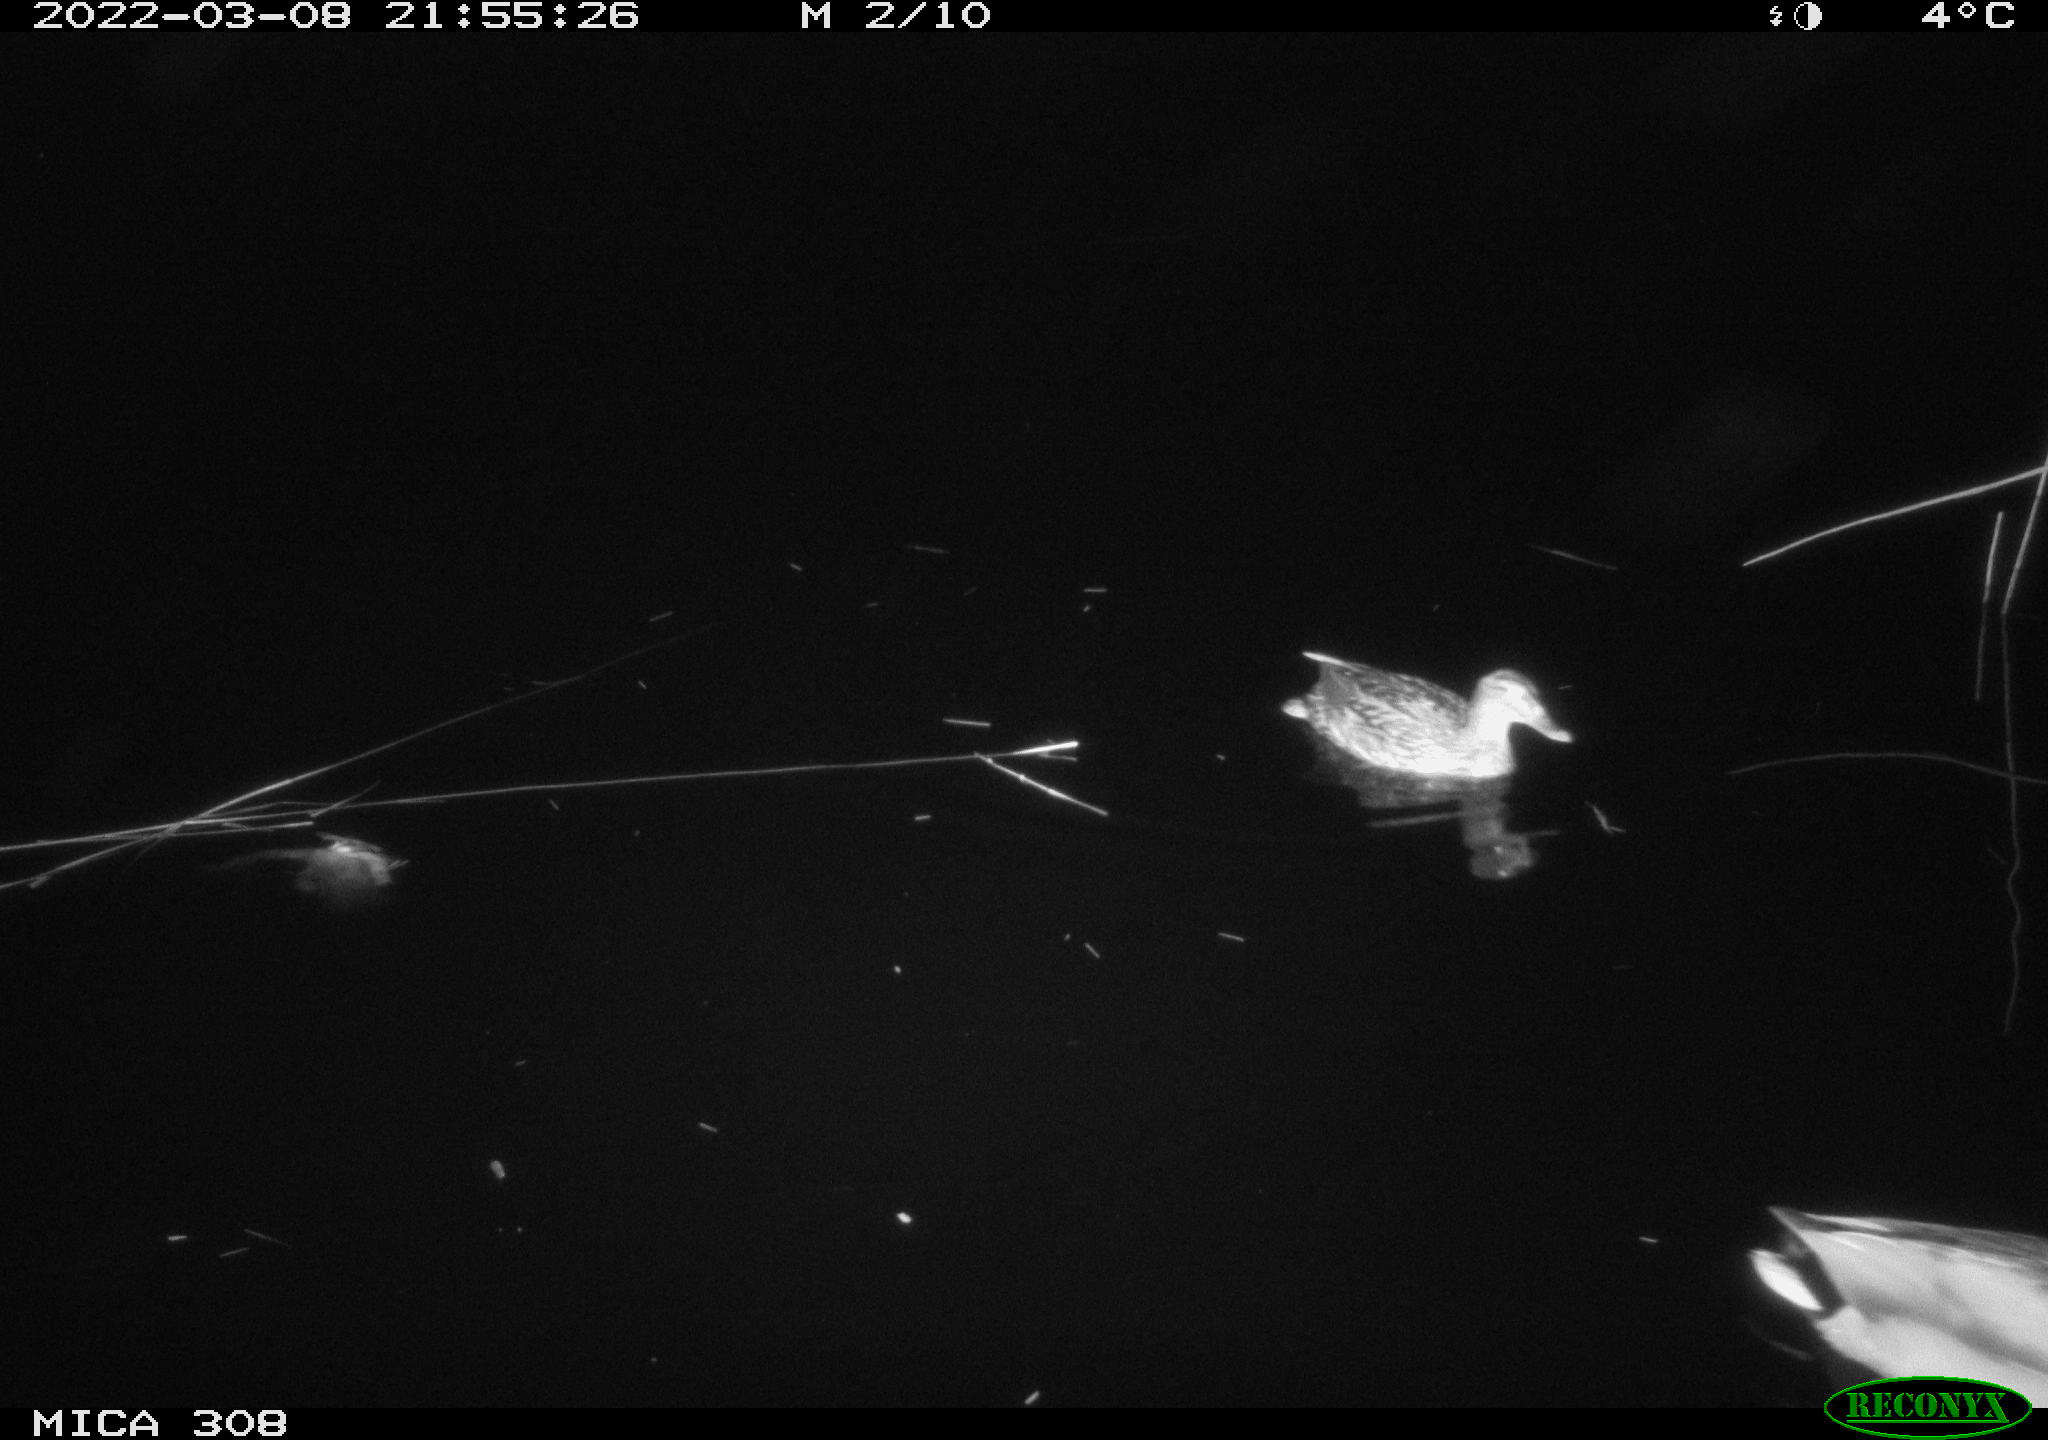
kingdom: Animalia
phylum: Chordata
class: Aves
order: Anseriformes
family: Anatidae
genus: Anas
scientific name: Anas platyrhynchos
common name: Mallard
